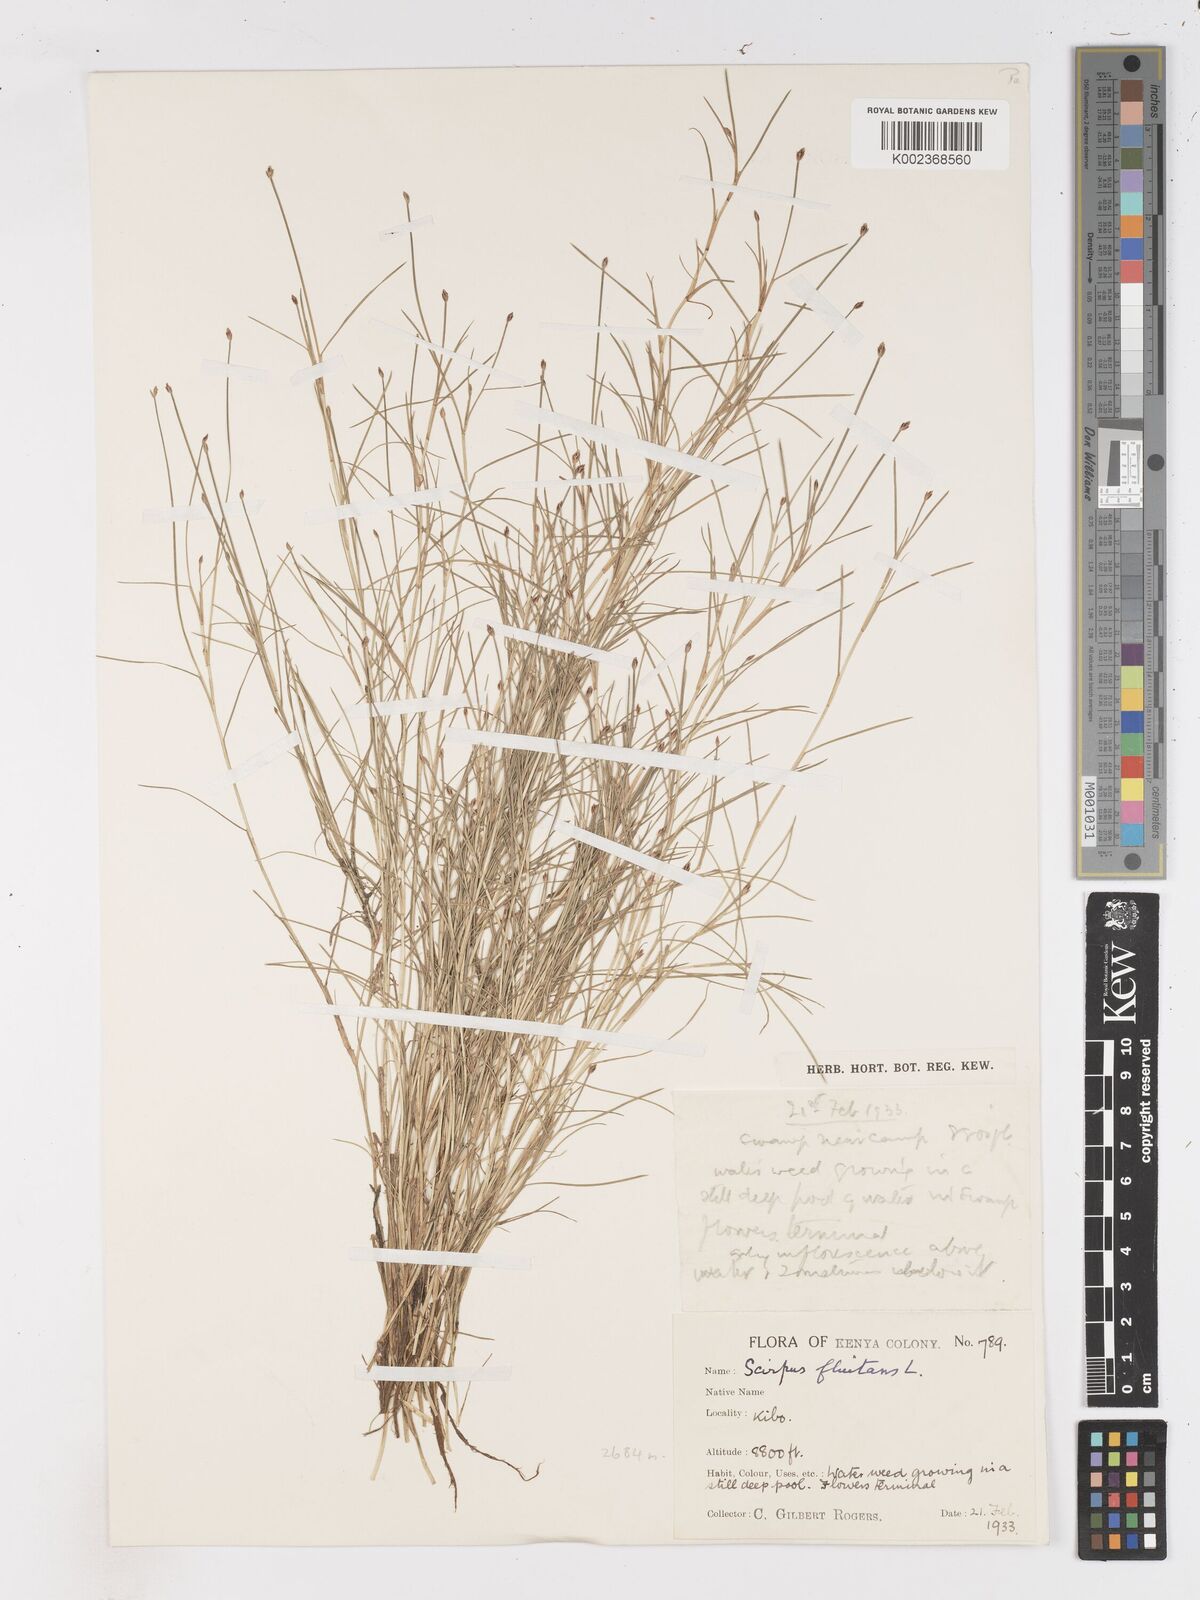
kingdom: Plantae
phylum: Tracheophyta
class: Liliopsida
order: Poales
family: Cyperaceae
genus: Isolepis
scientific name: Isolepis fluitans
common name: Floating club-rush
